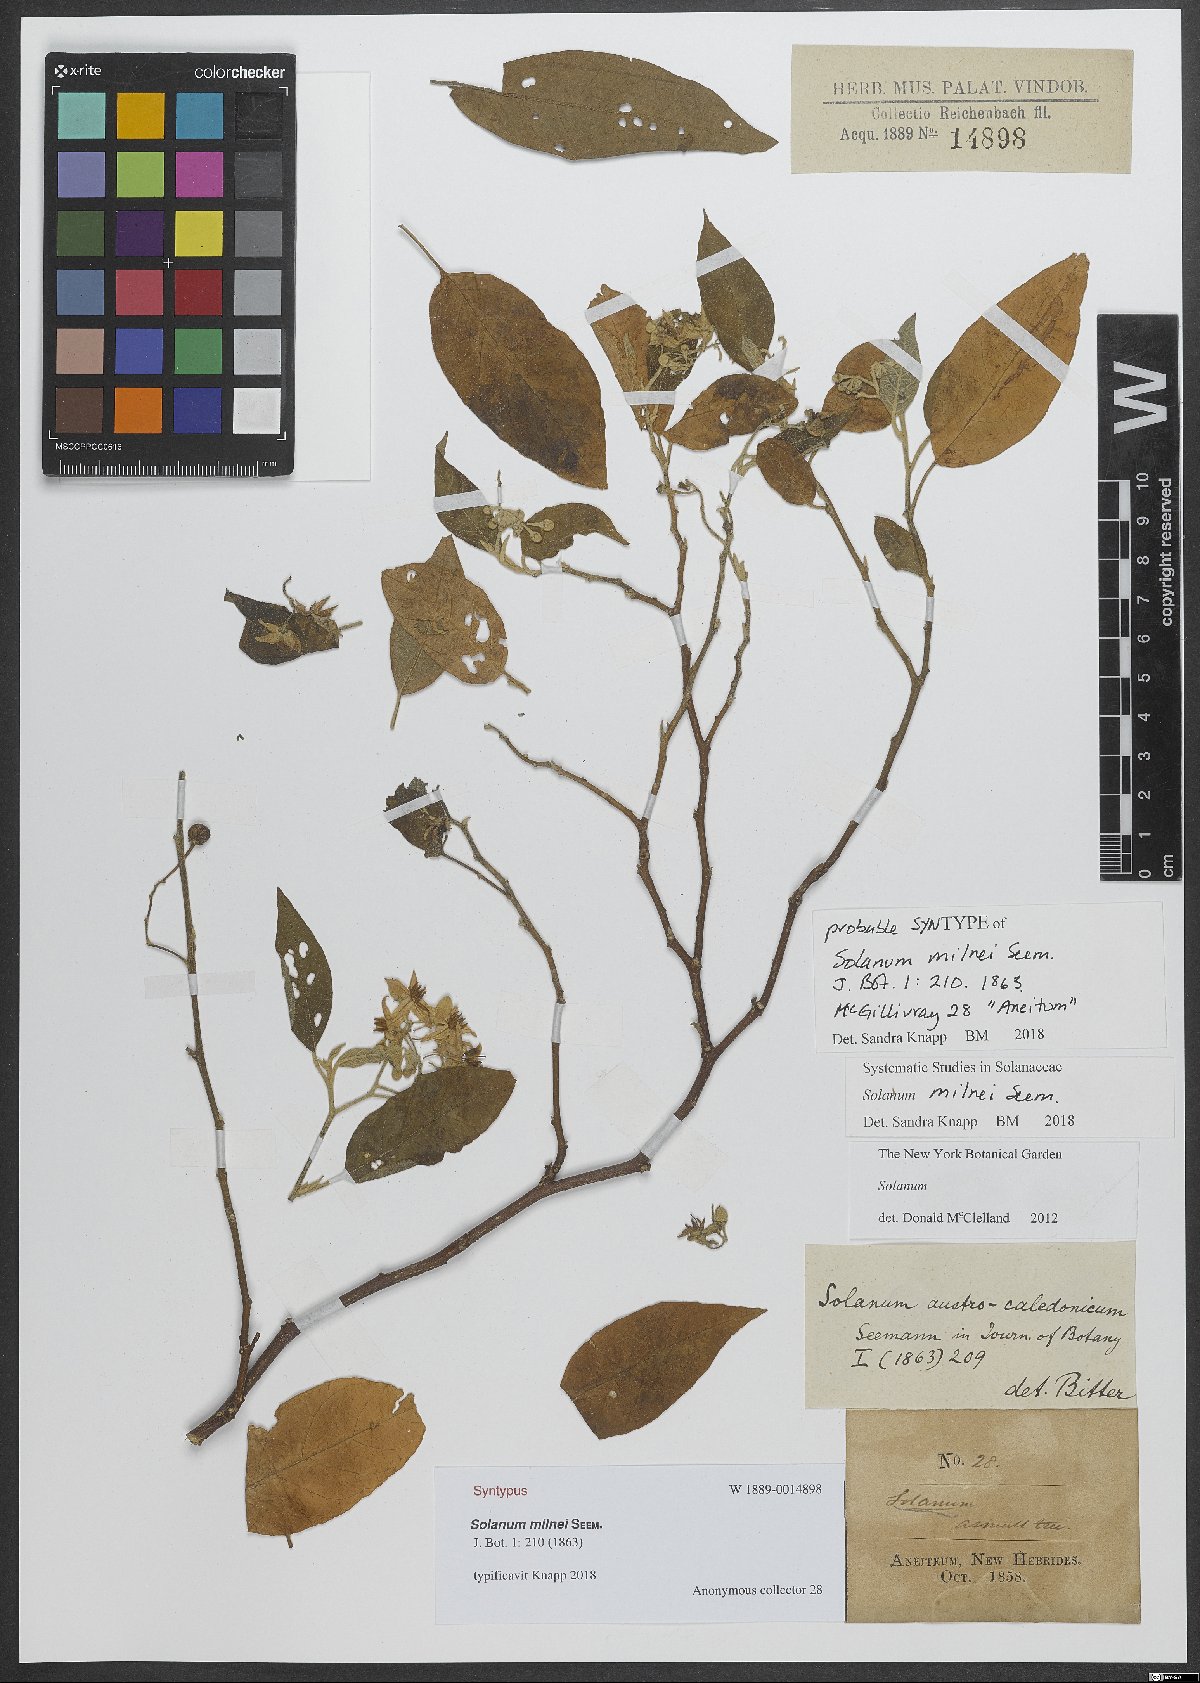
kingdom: Plantae
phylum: Tracheophyta
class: Magnoliopsida
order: Solanales
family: Solanaceae
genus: Solanum
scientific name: Solanum milnei
